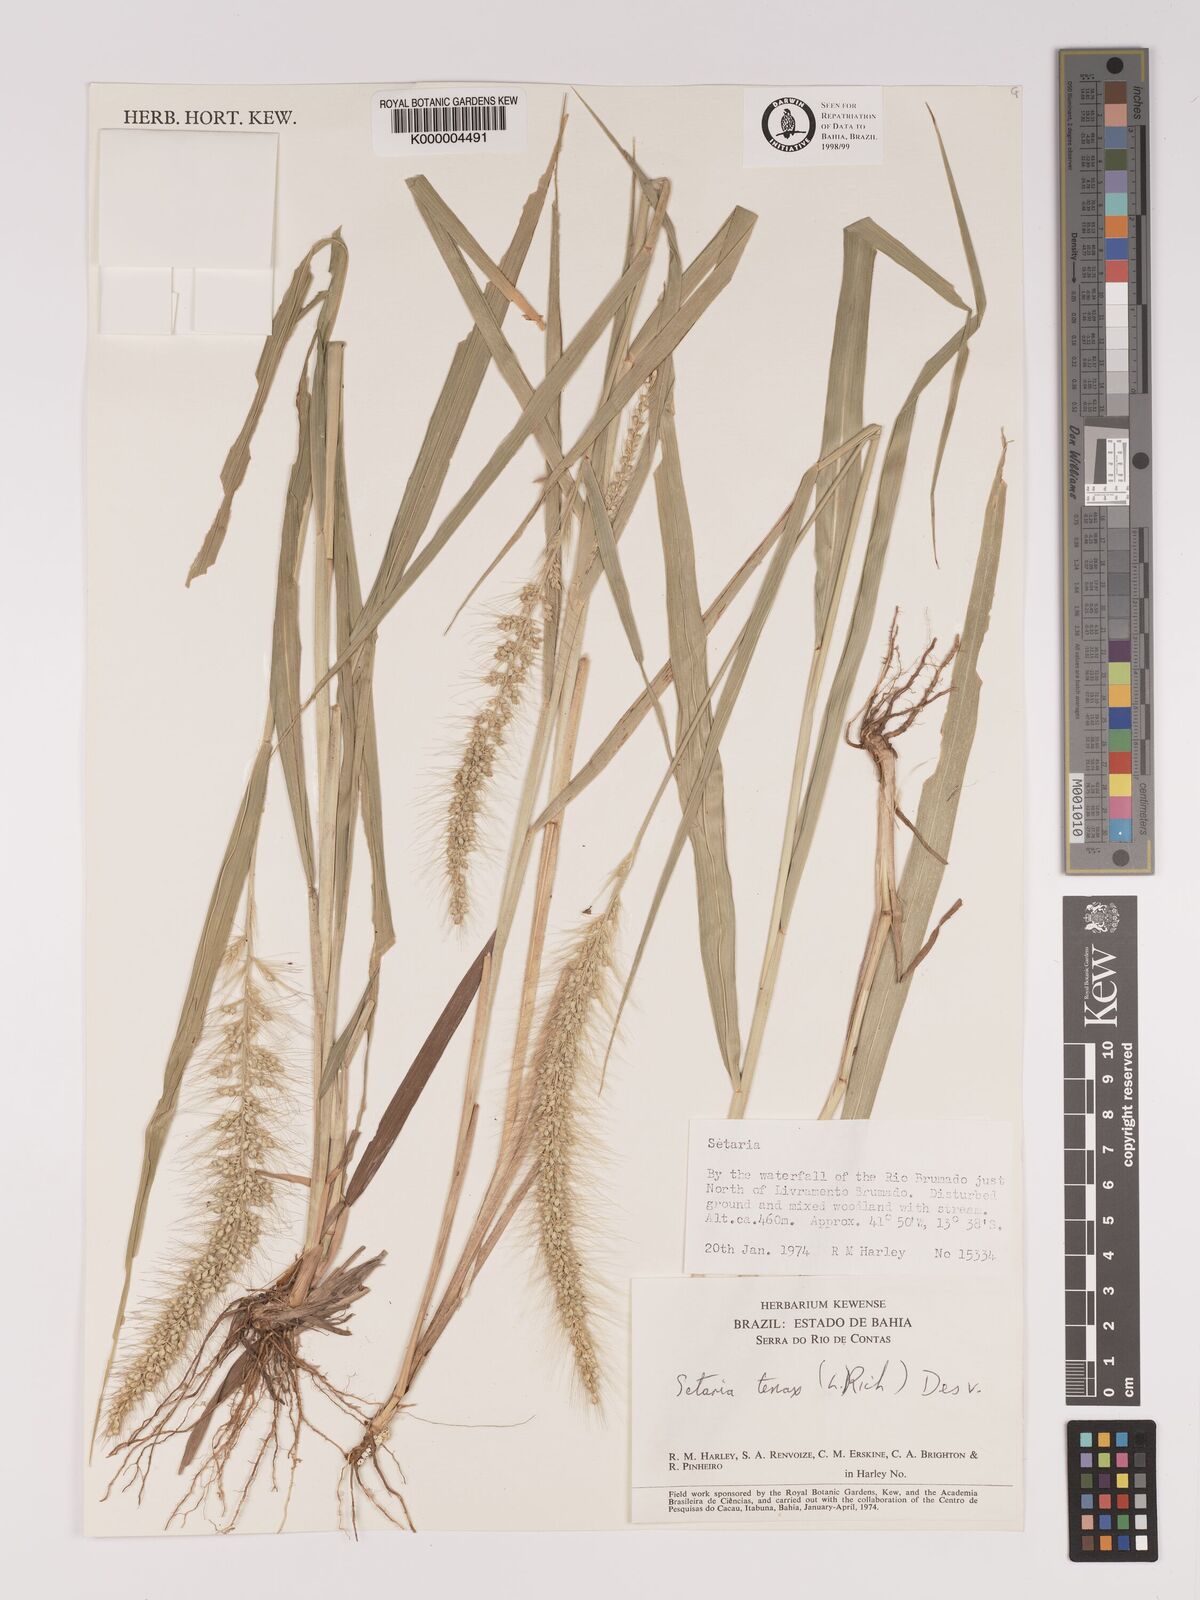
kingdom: Plantae
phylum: Tracheophyta
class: Liliopsida
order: Poales
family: Poaceae
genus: Setaria
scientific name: Setaria tenax
